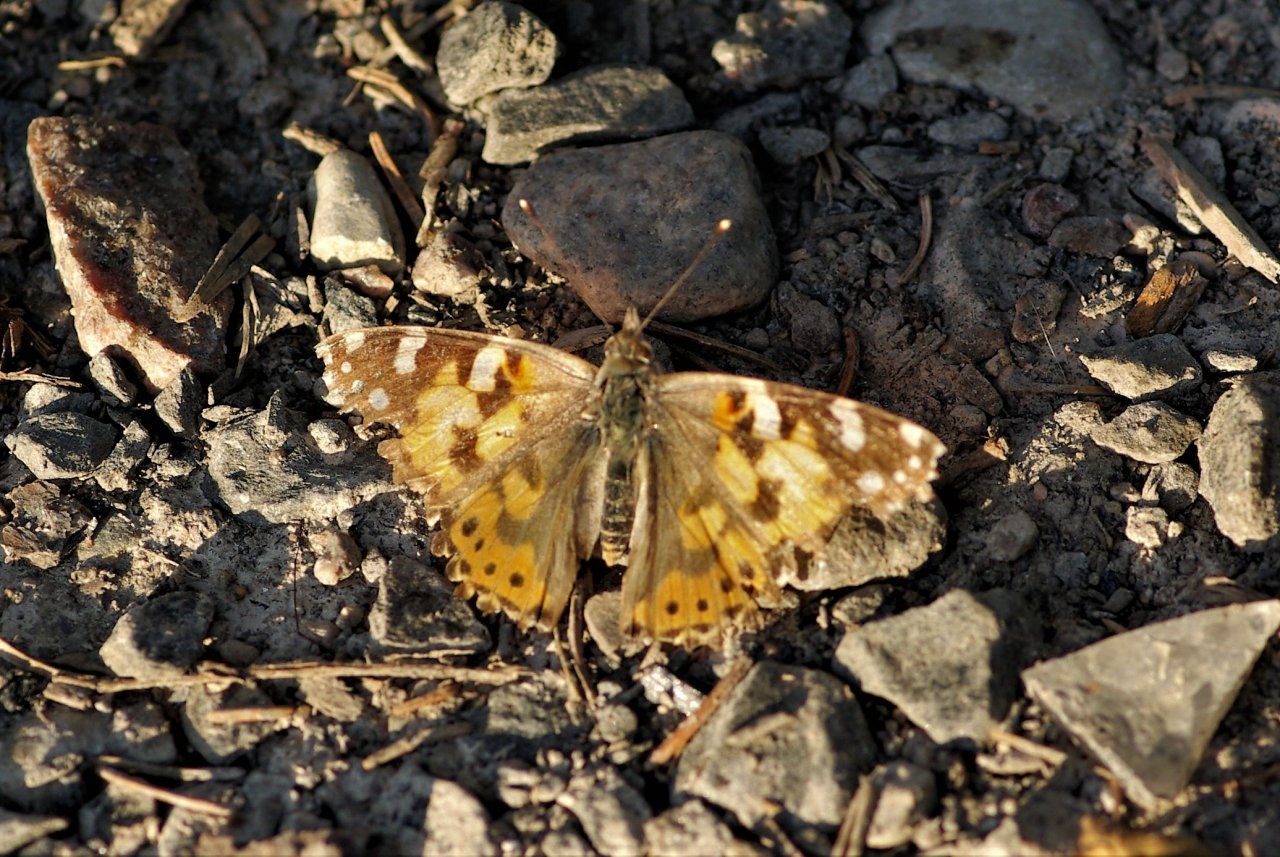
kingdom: Animalia
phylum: Arthropoda
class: Insecta
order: Lepidoptera
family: Nymphalidae
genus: Vanessa
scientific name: Vanessa cardui
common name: Painted Lady
